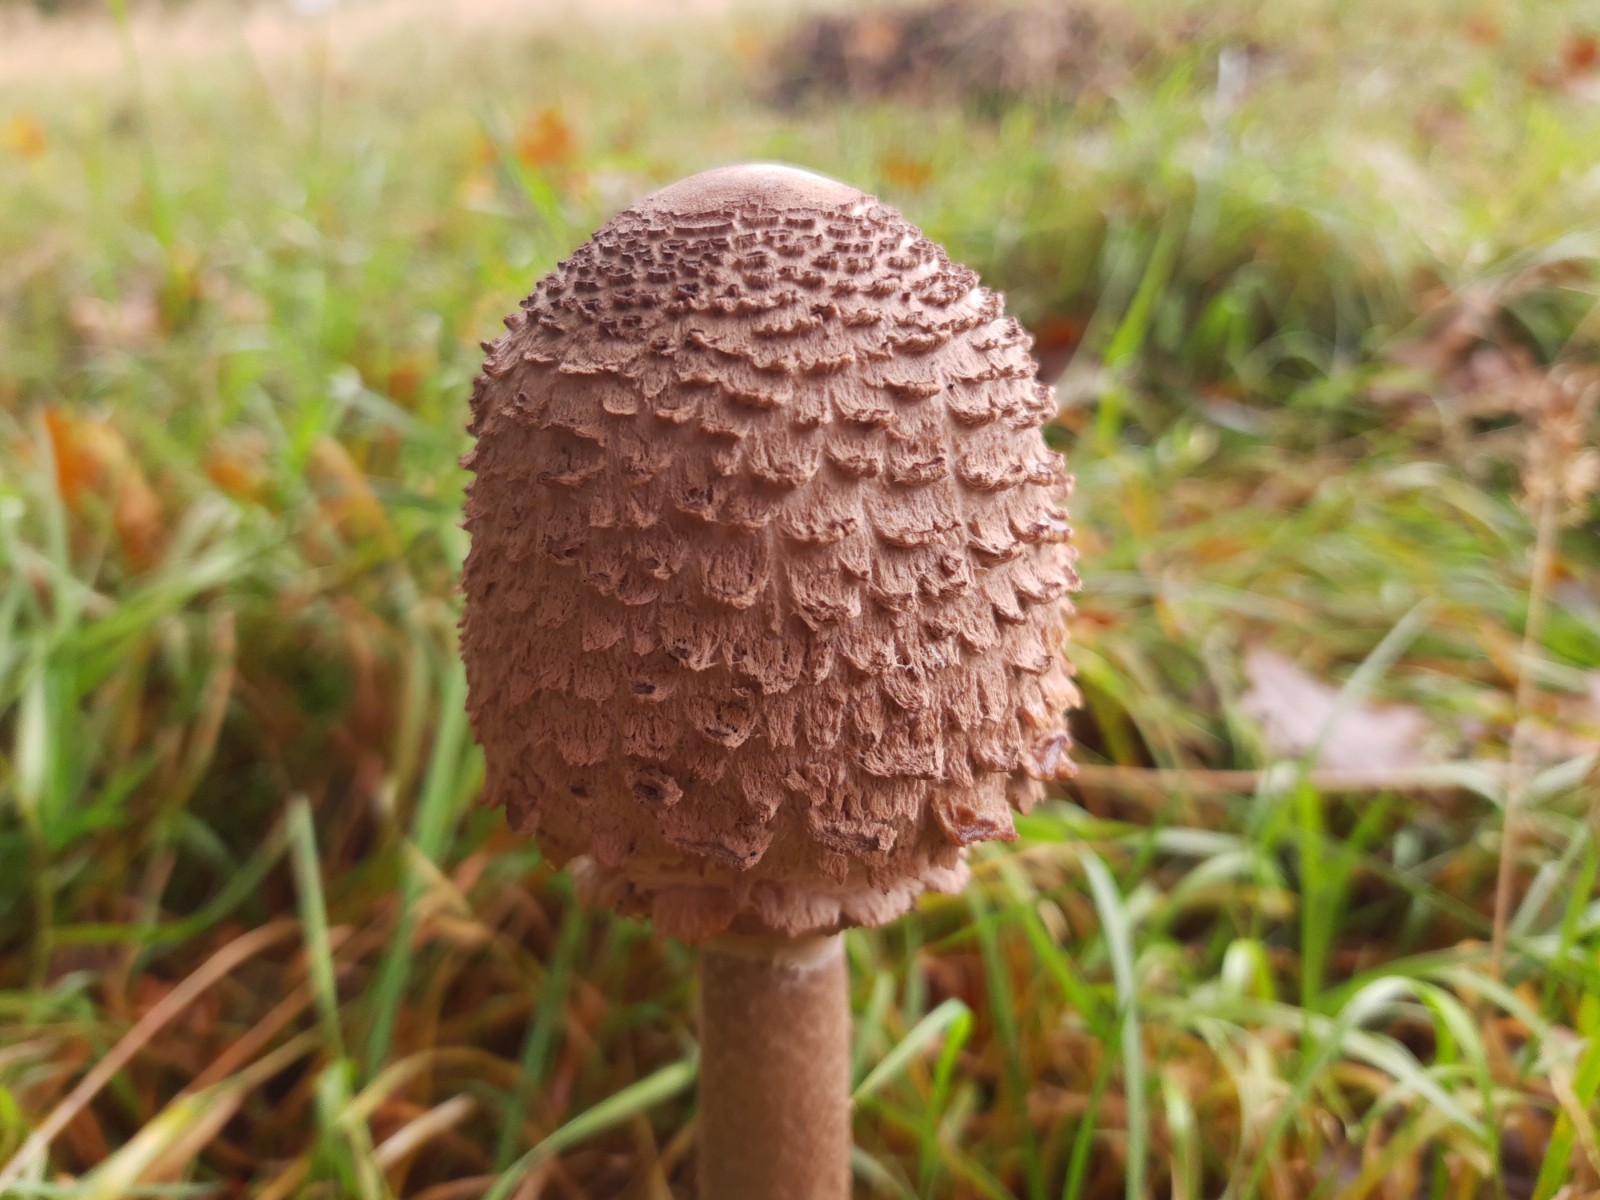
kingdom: Fungi
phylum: Basidiomycota
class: Agaricomycetes
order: Agaricales
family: Agaricaceae
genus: Macrolepiota
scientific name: Macrolepiota procera
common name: stor kæmpeparasolhat
